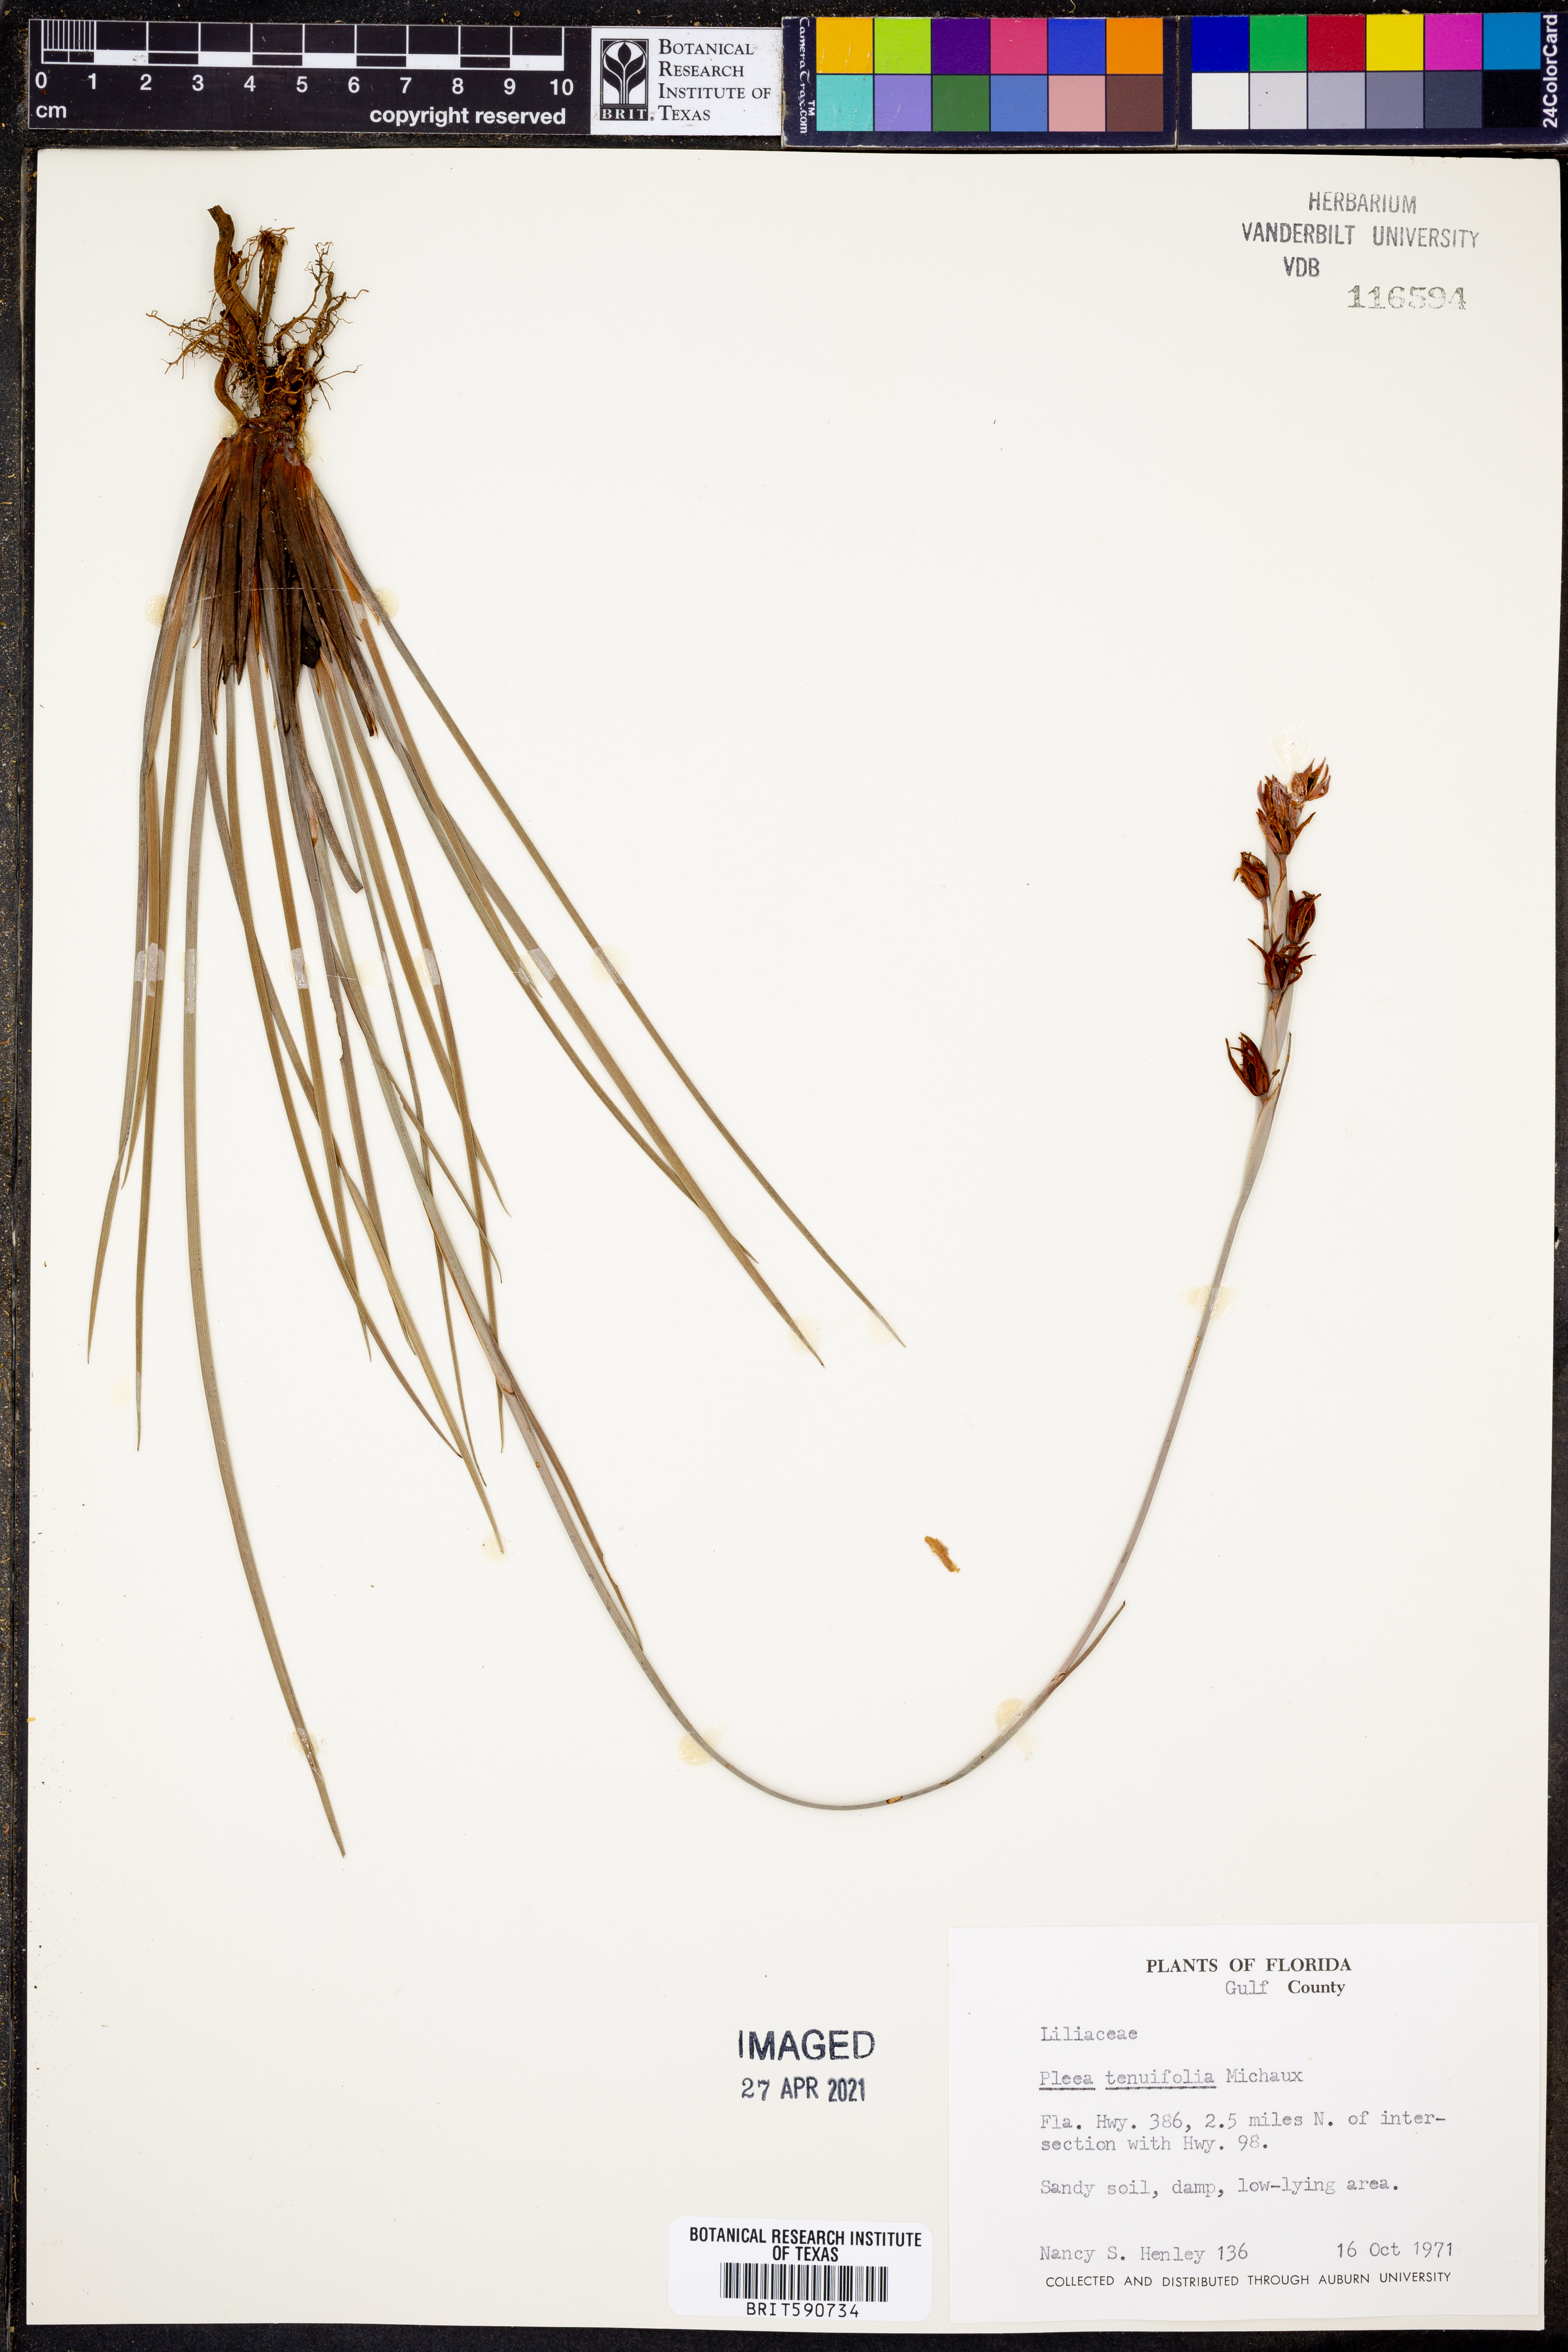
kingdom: Plantae
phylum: Tracheophyta
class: Liliopsida
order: Alismatales
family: Tofieldiaceae
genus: Pleea
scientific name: Pleea tenuifolia
